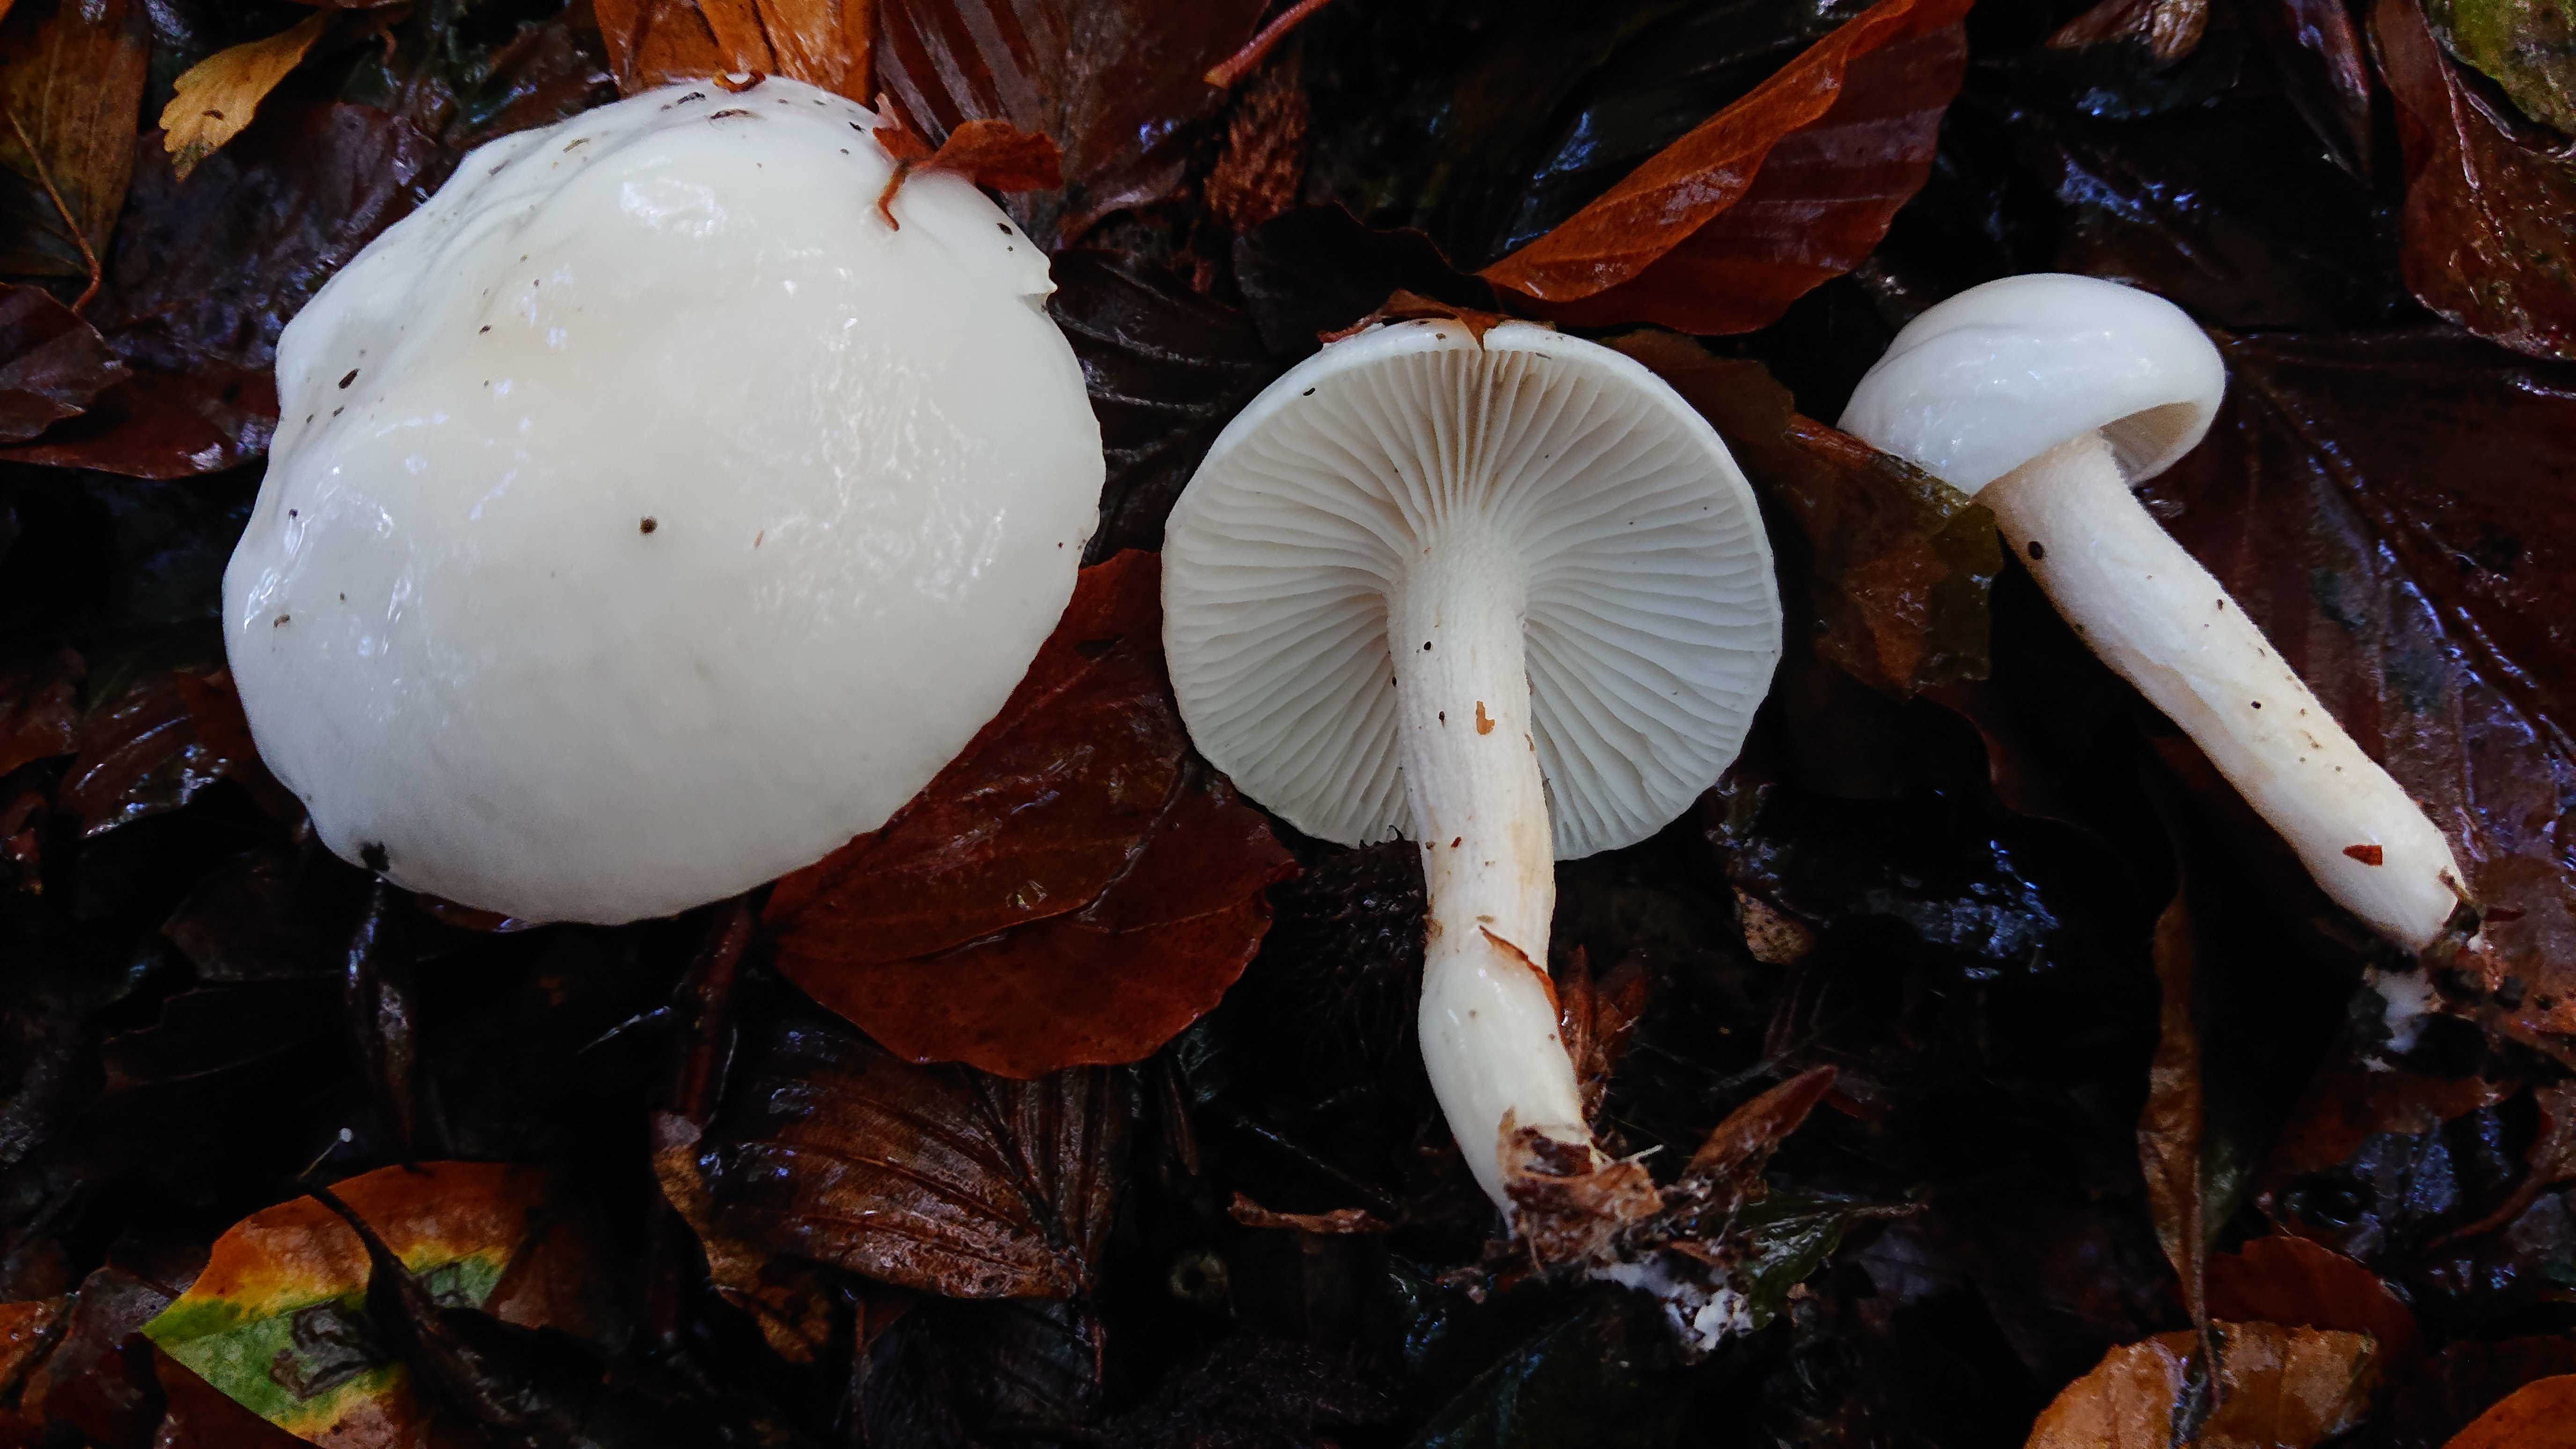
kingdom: Fungi
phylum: Basidiomycota
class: Agaricomycetes
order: Agaricales
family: Hygrophoraceae
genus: Hygrophorus
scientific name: Hygrophorus
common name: sneglehat
